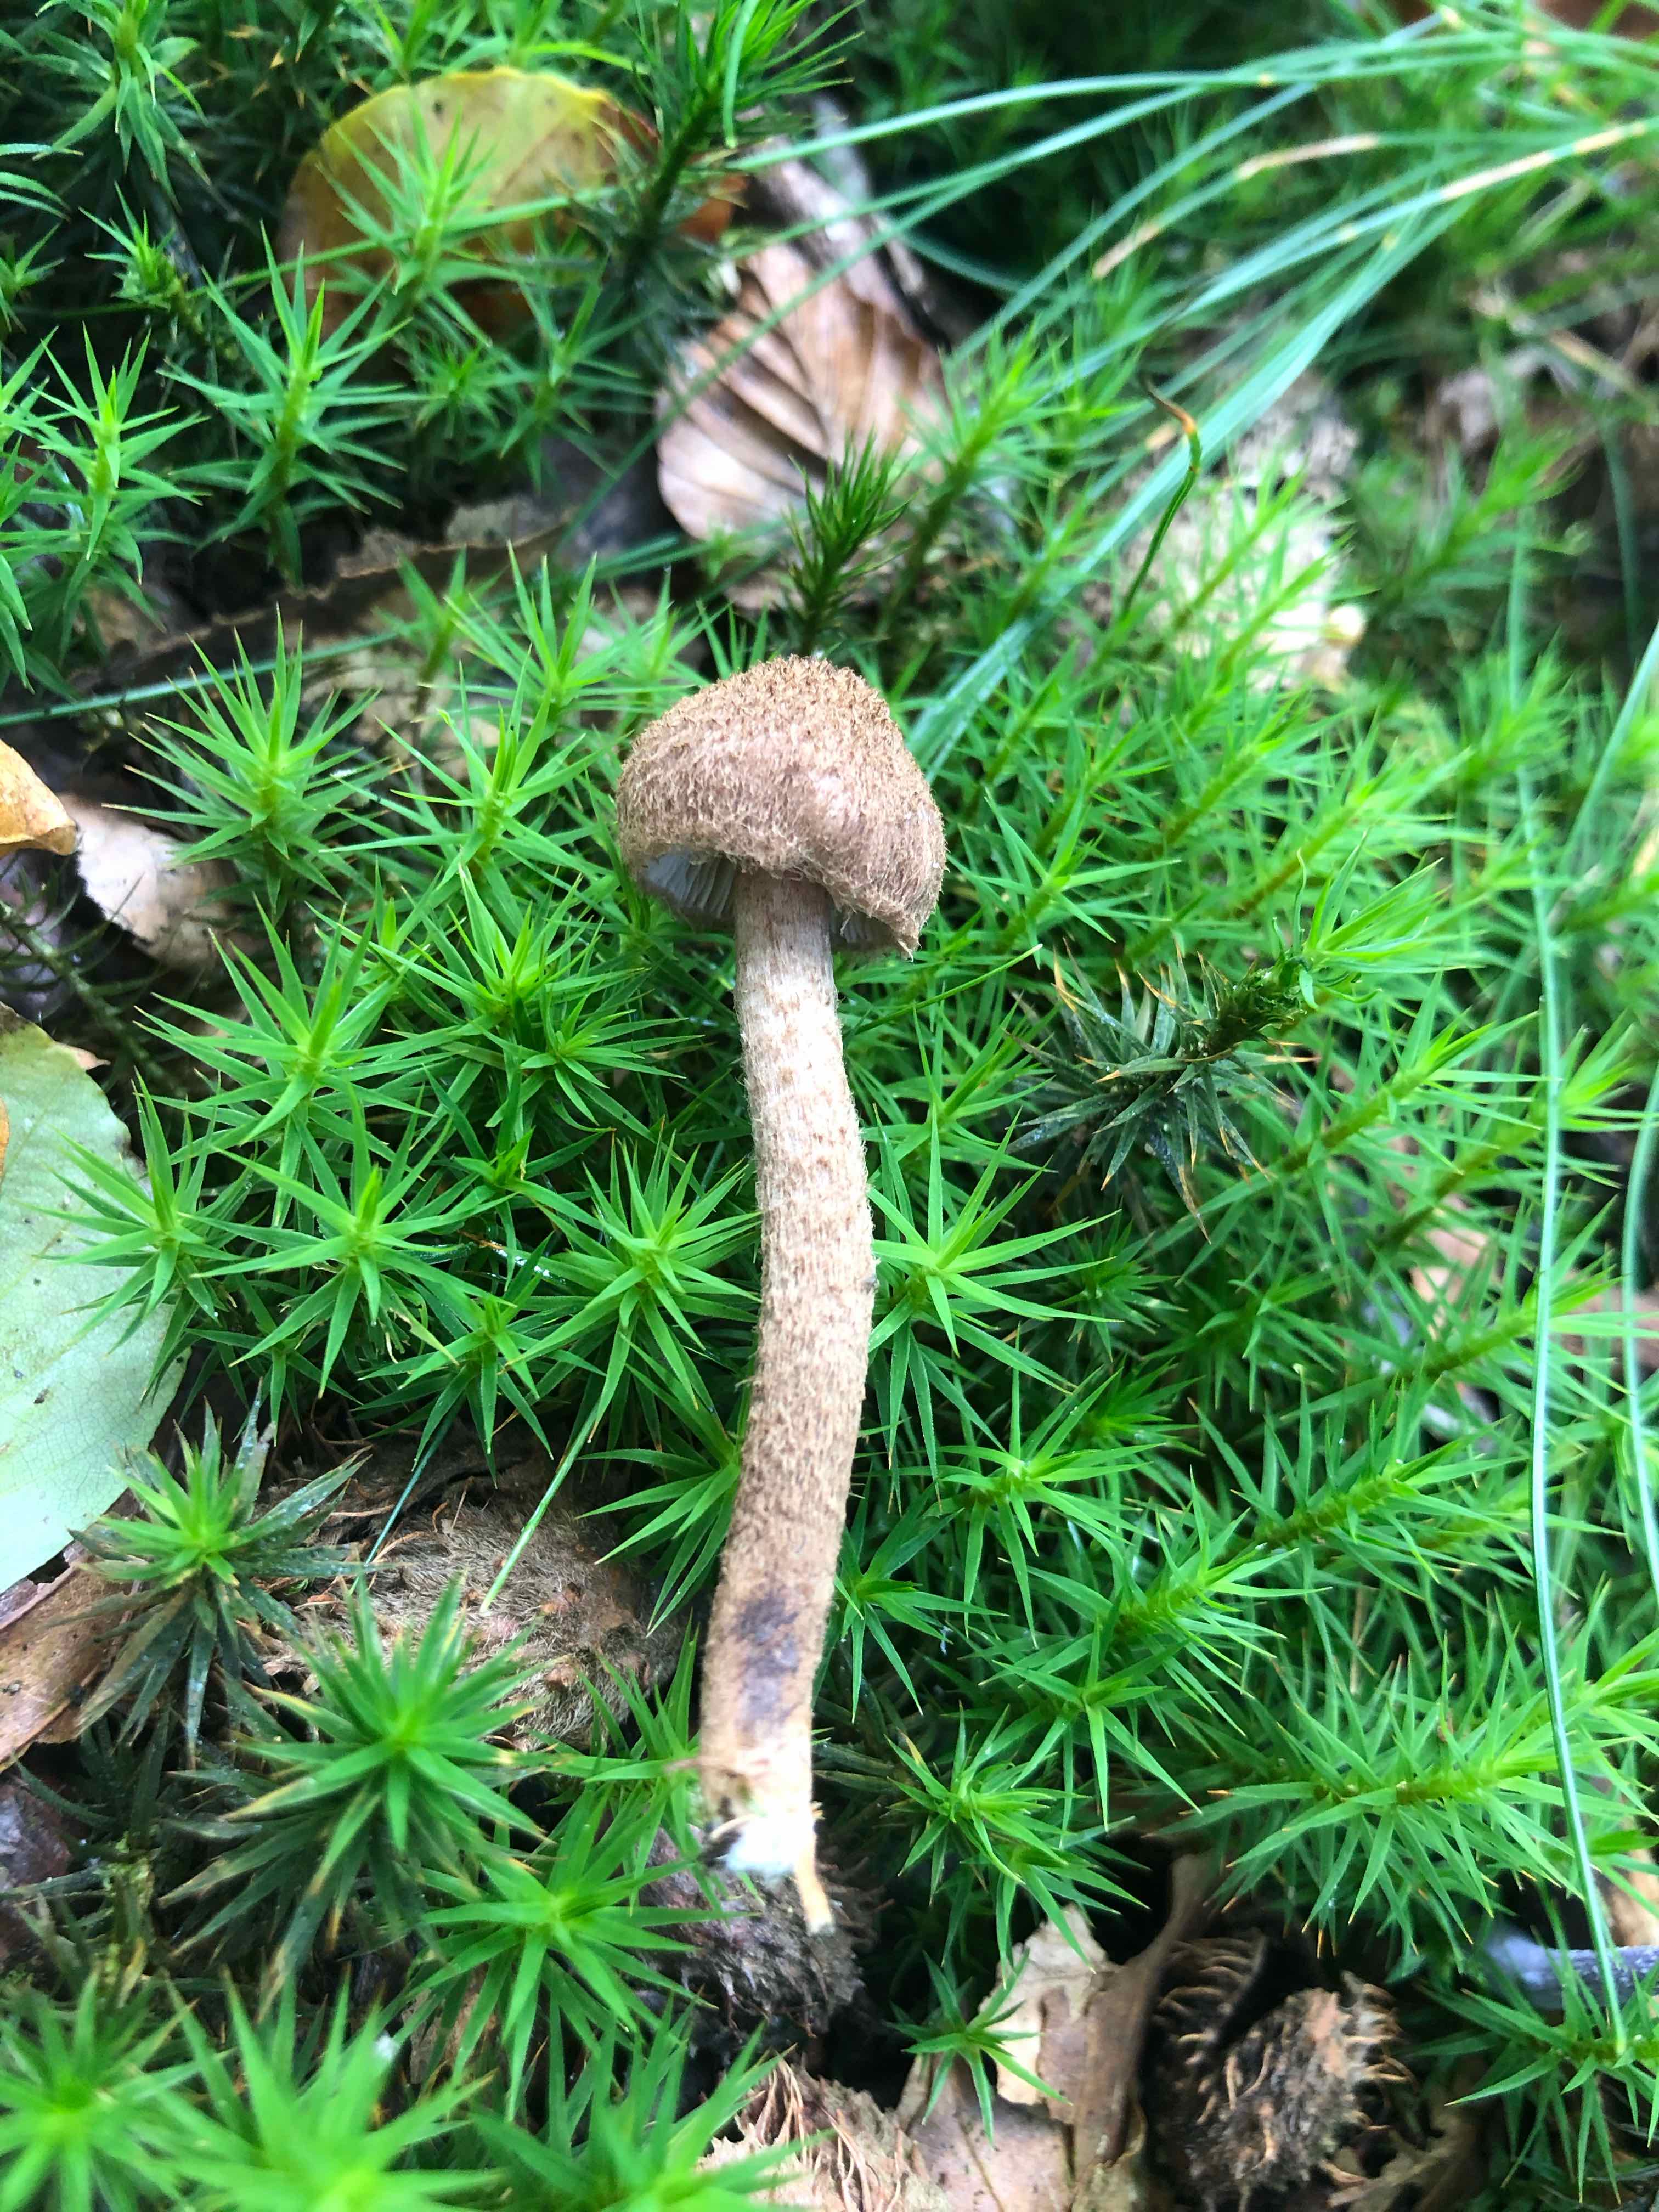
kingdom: Fungi
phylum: Basidiomycota
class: Agaricomycetes
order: Agaricales
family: Inocybaceae
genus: Inocybe
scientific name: Inocybe
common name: trævlhat
